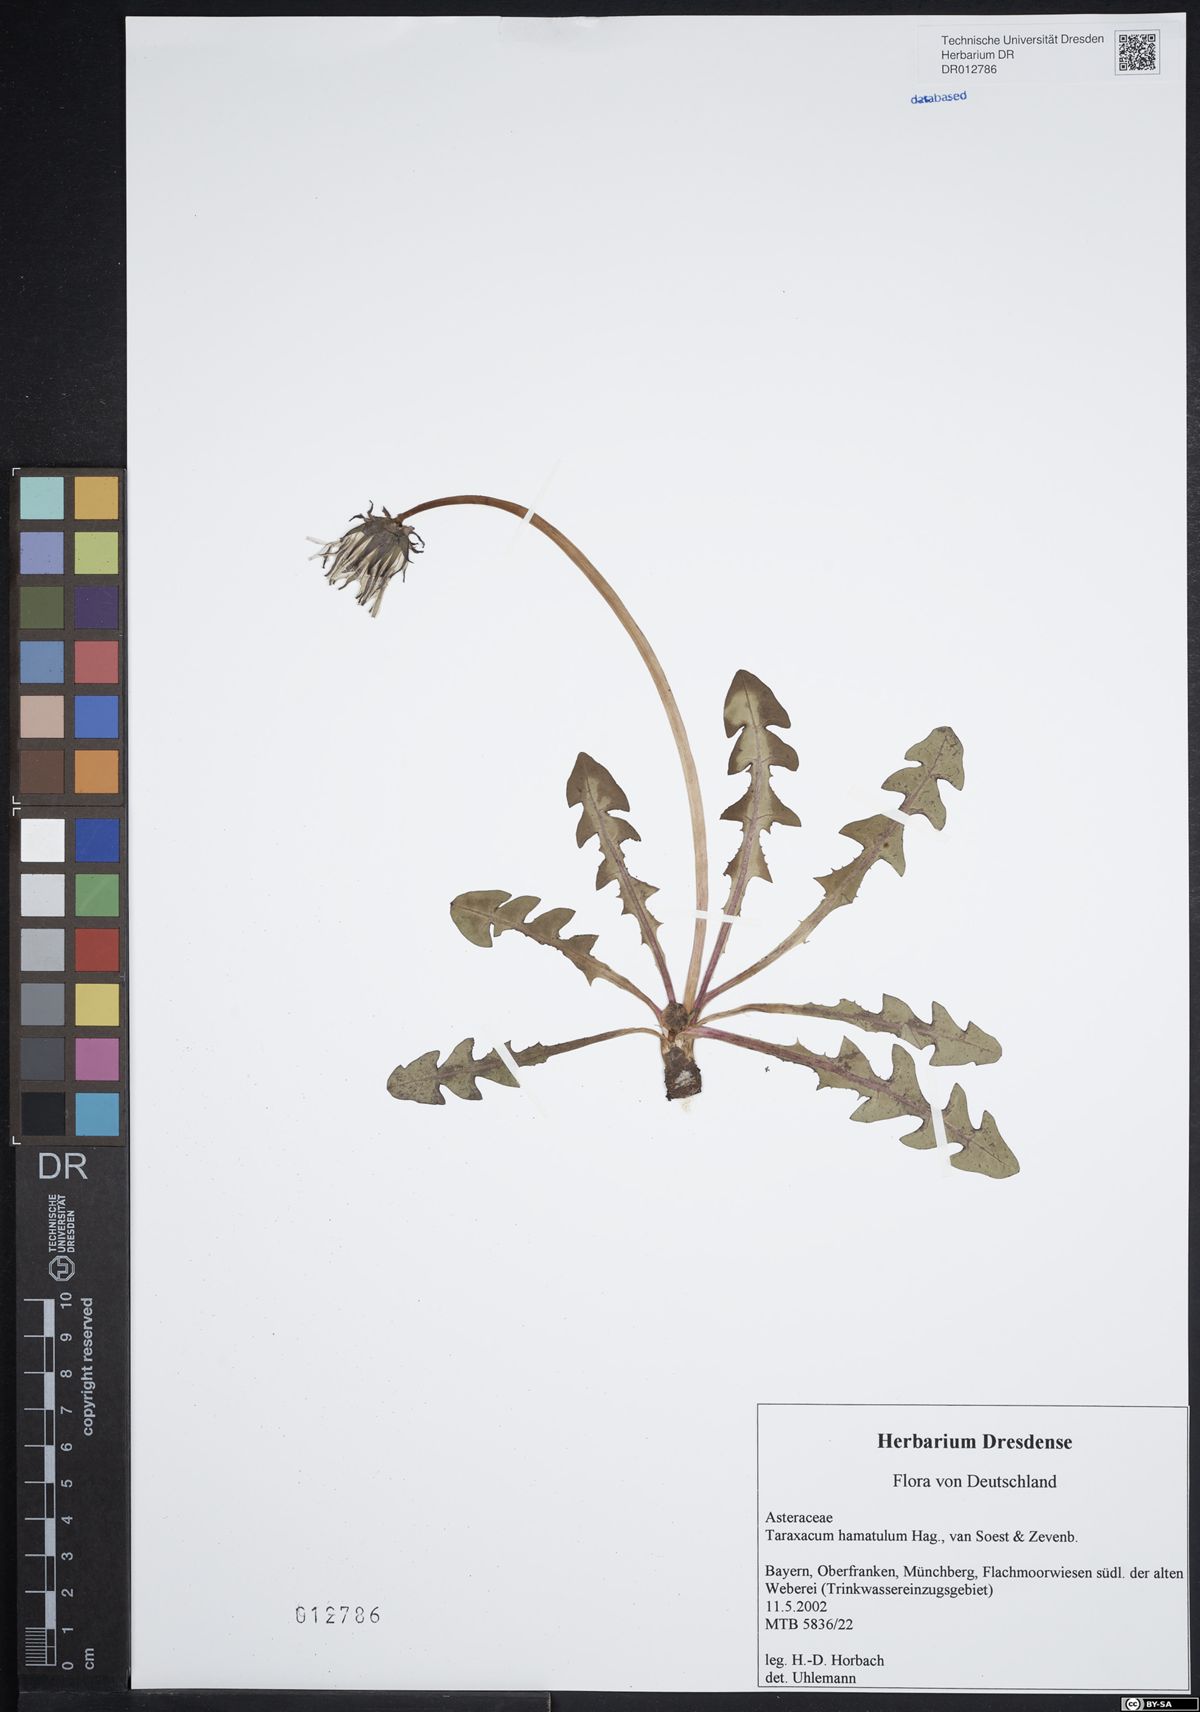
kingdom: Plantae
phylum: Tracheophyta
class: Magnoliopsida
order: Asterales
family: Asteraceae
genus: Taraxacum
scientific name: Taraxacum hamatulum
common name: Slender hook-lobed dandelion
